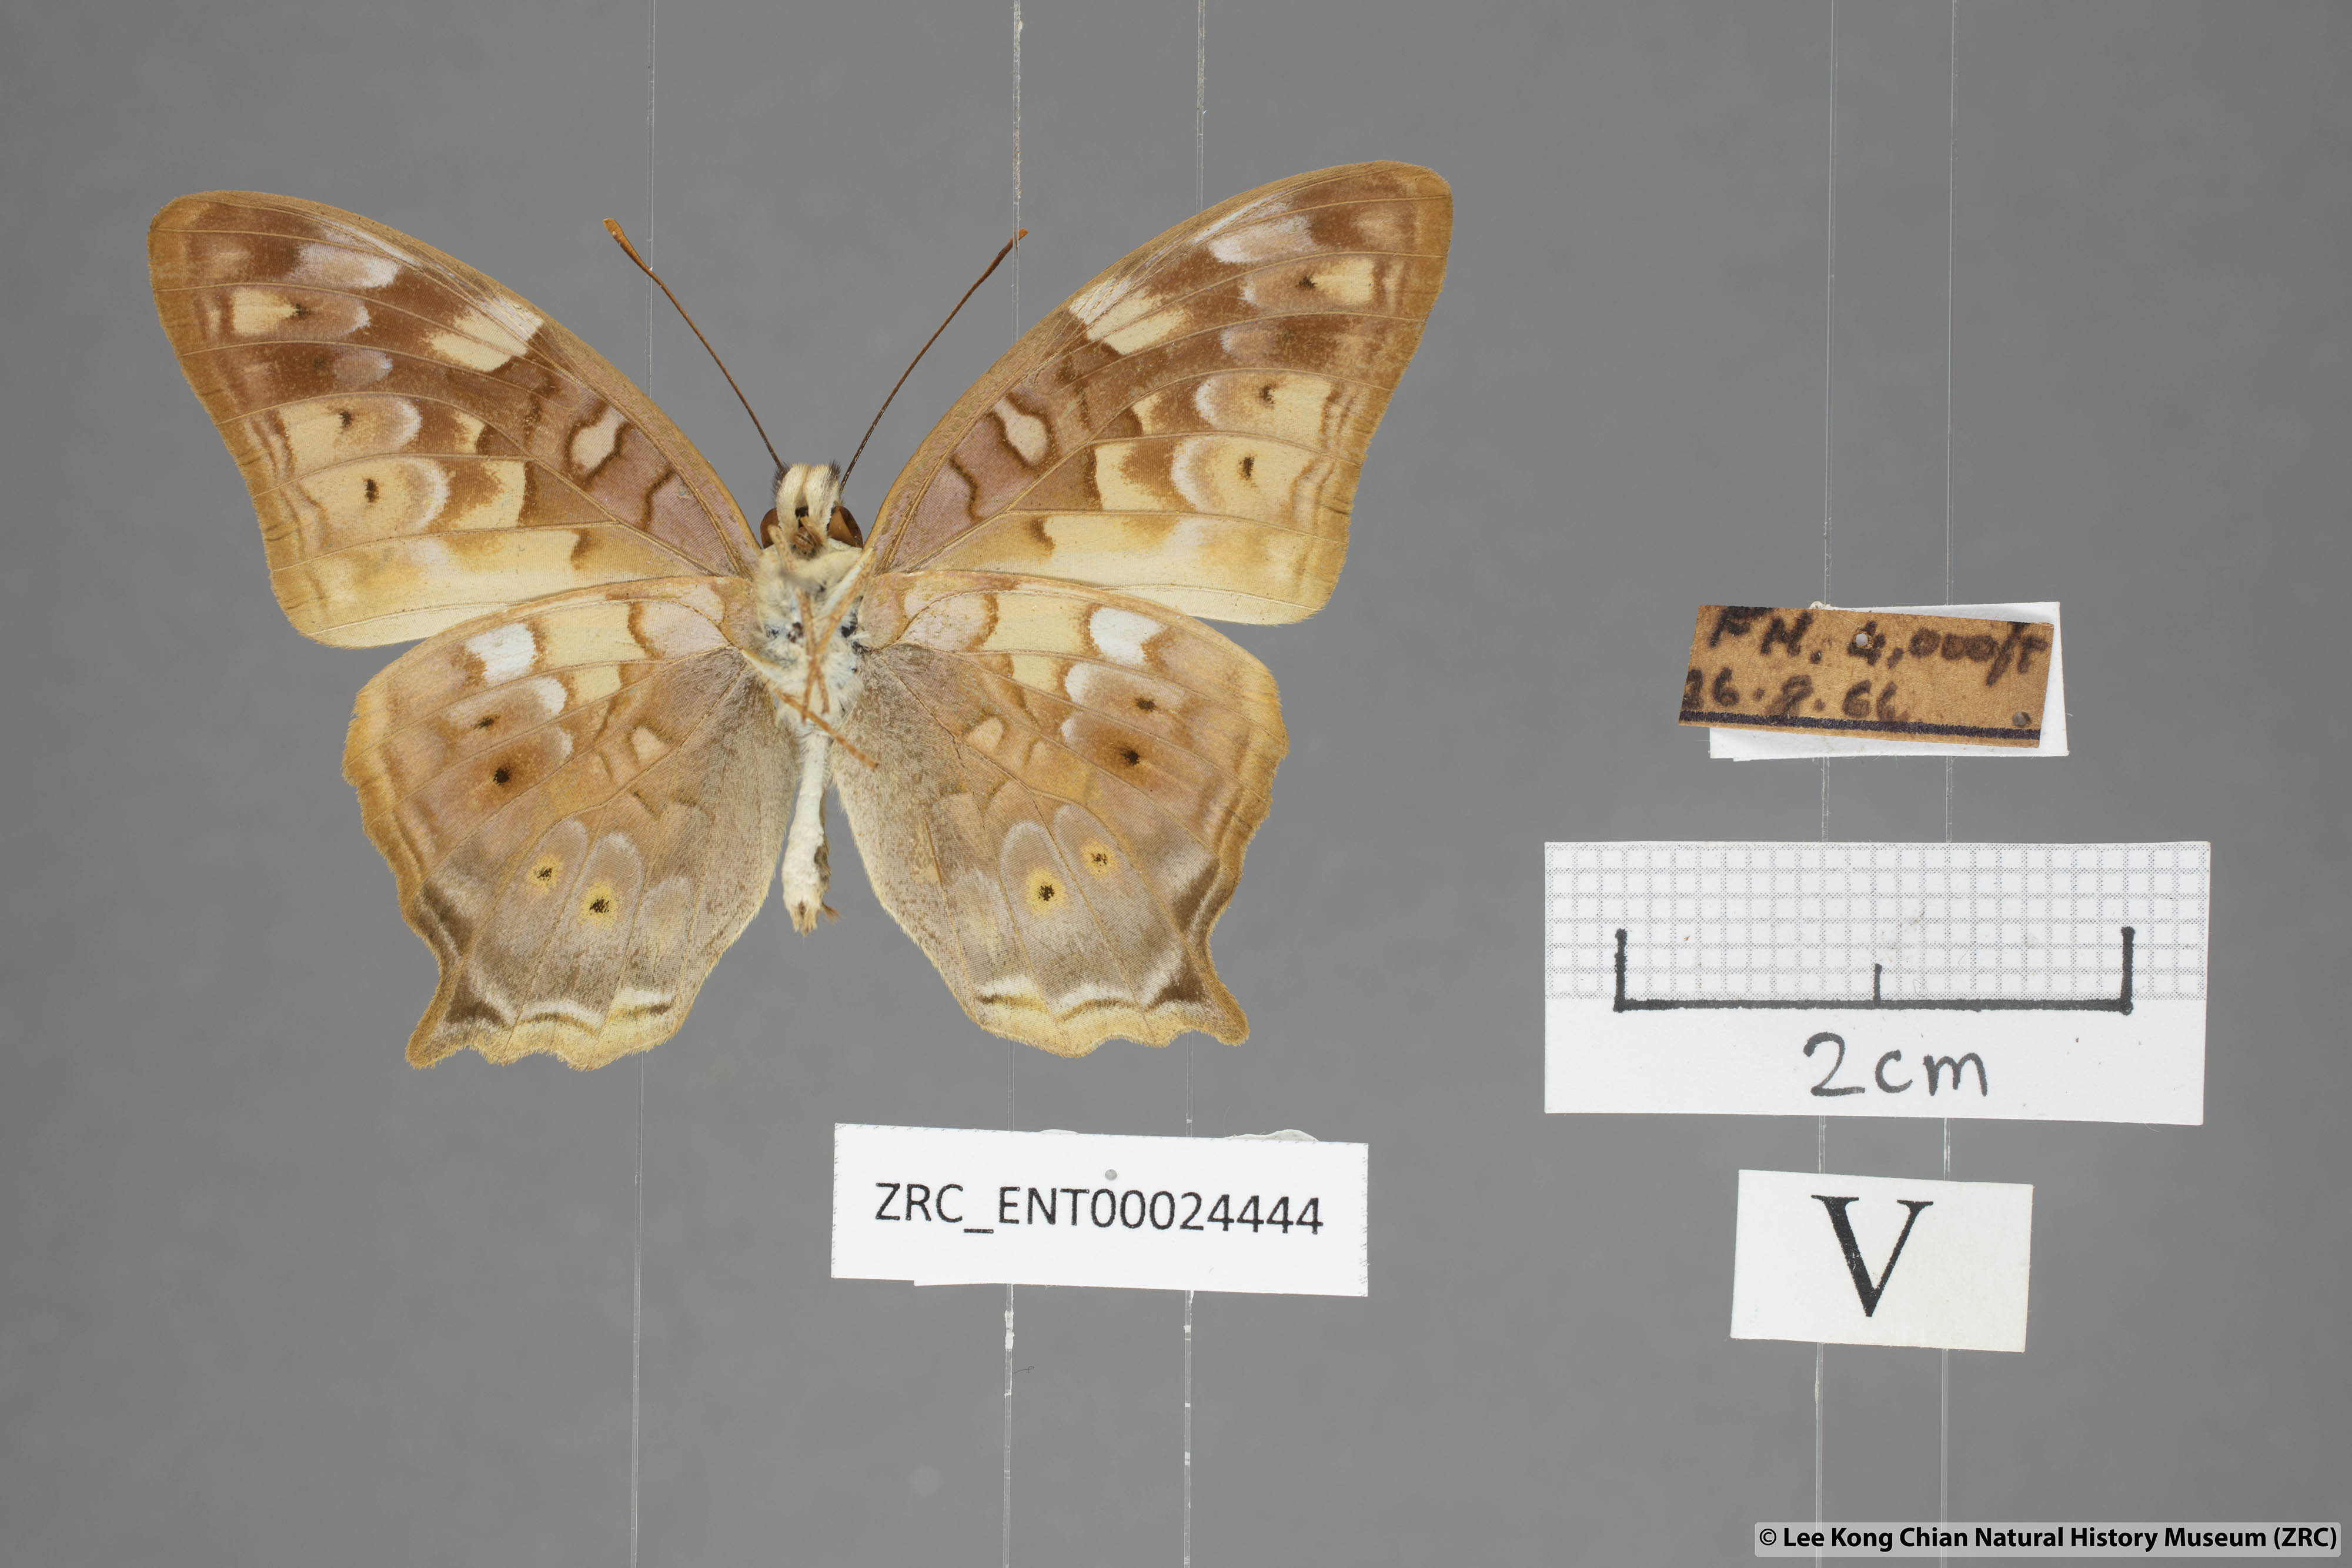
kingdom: Animalia
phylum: Arthropoda
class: Insecta
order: Lepidoptera
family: Nymphalidae
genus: Vagrans
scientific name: Vagrans egista
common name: Tailed rustic
